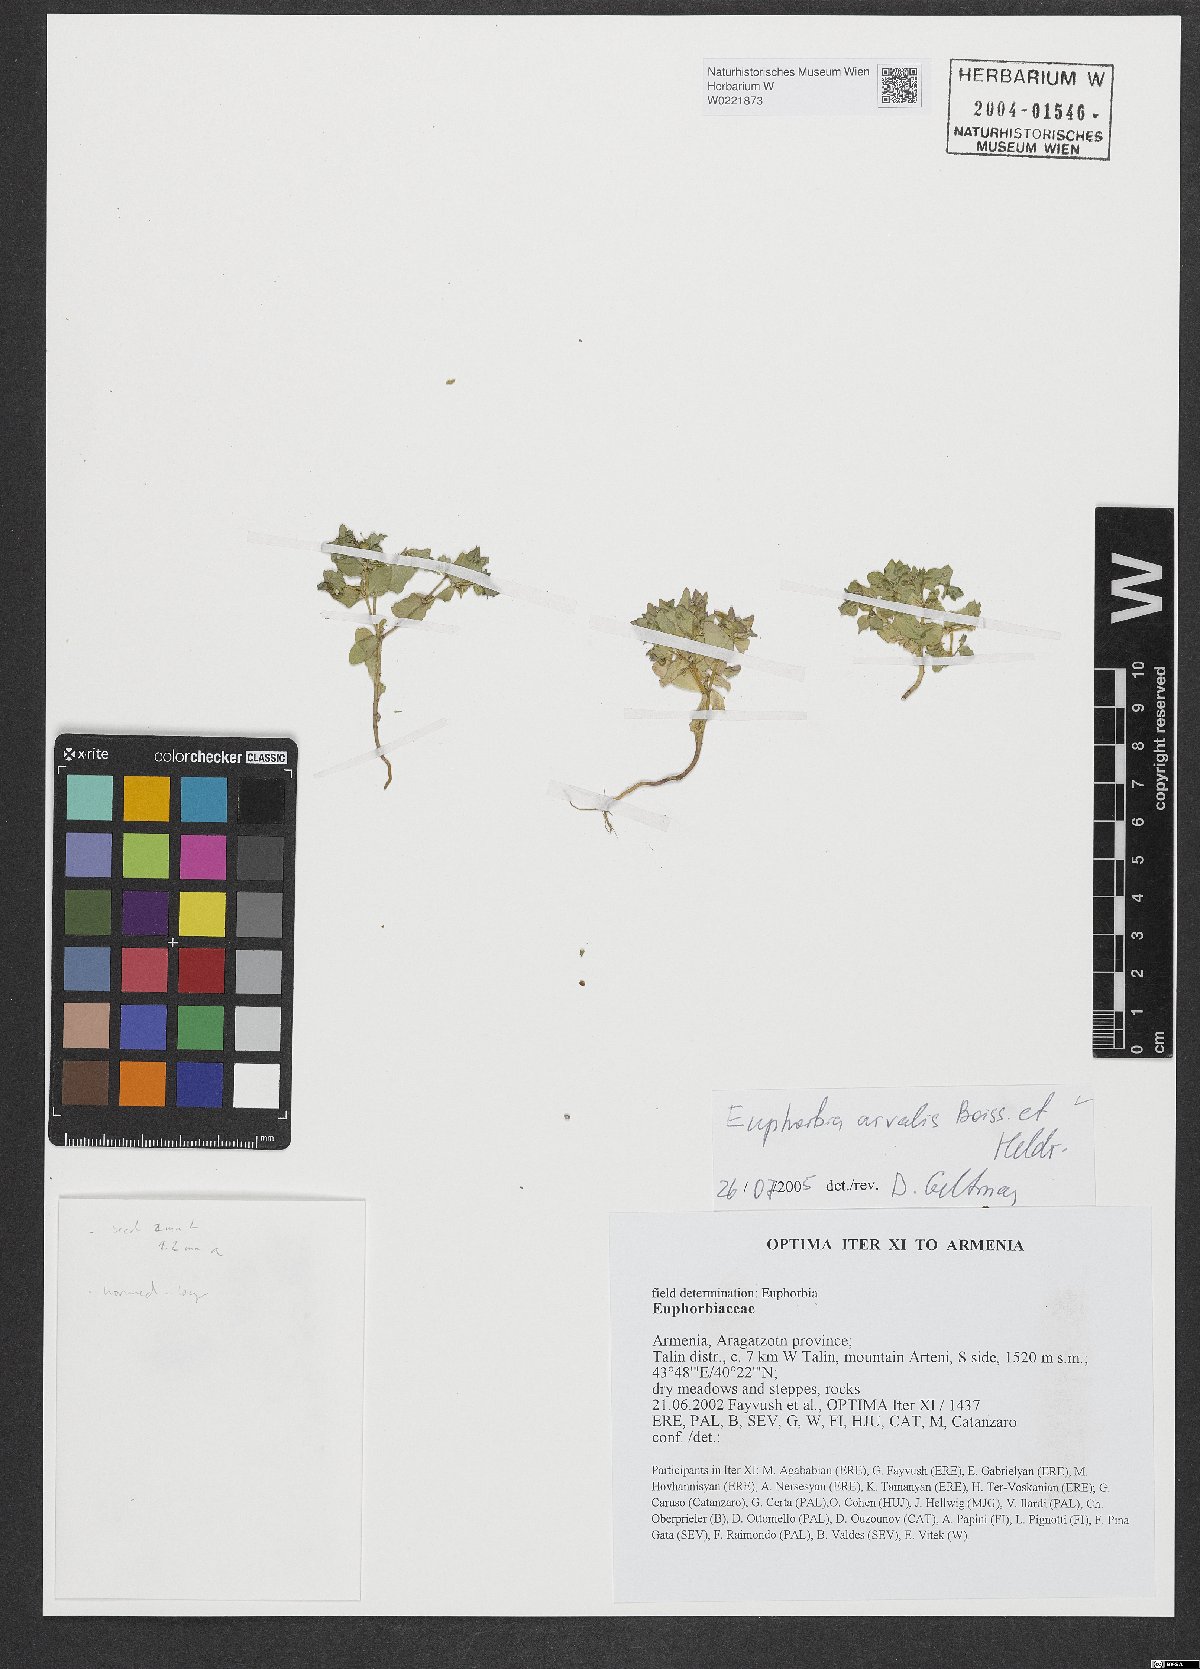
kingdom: Plantae
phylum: Tracheophyta
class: Magnoliopsida
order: Malpighiales
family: Euphorbiaceae
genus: Euphorbia
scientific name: Euphorbia arvalis
